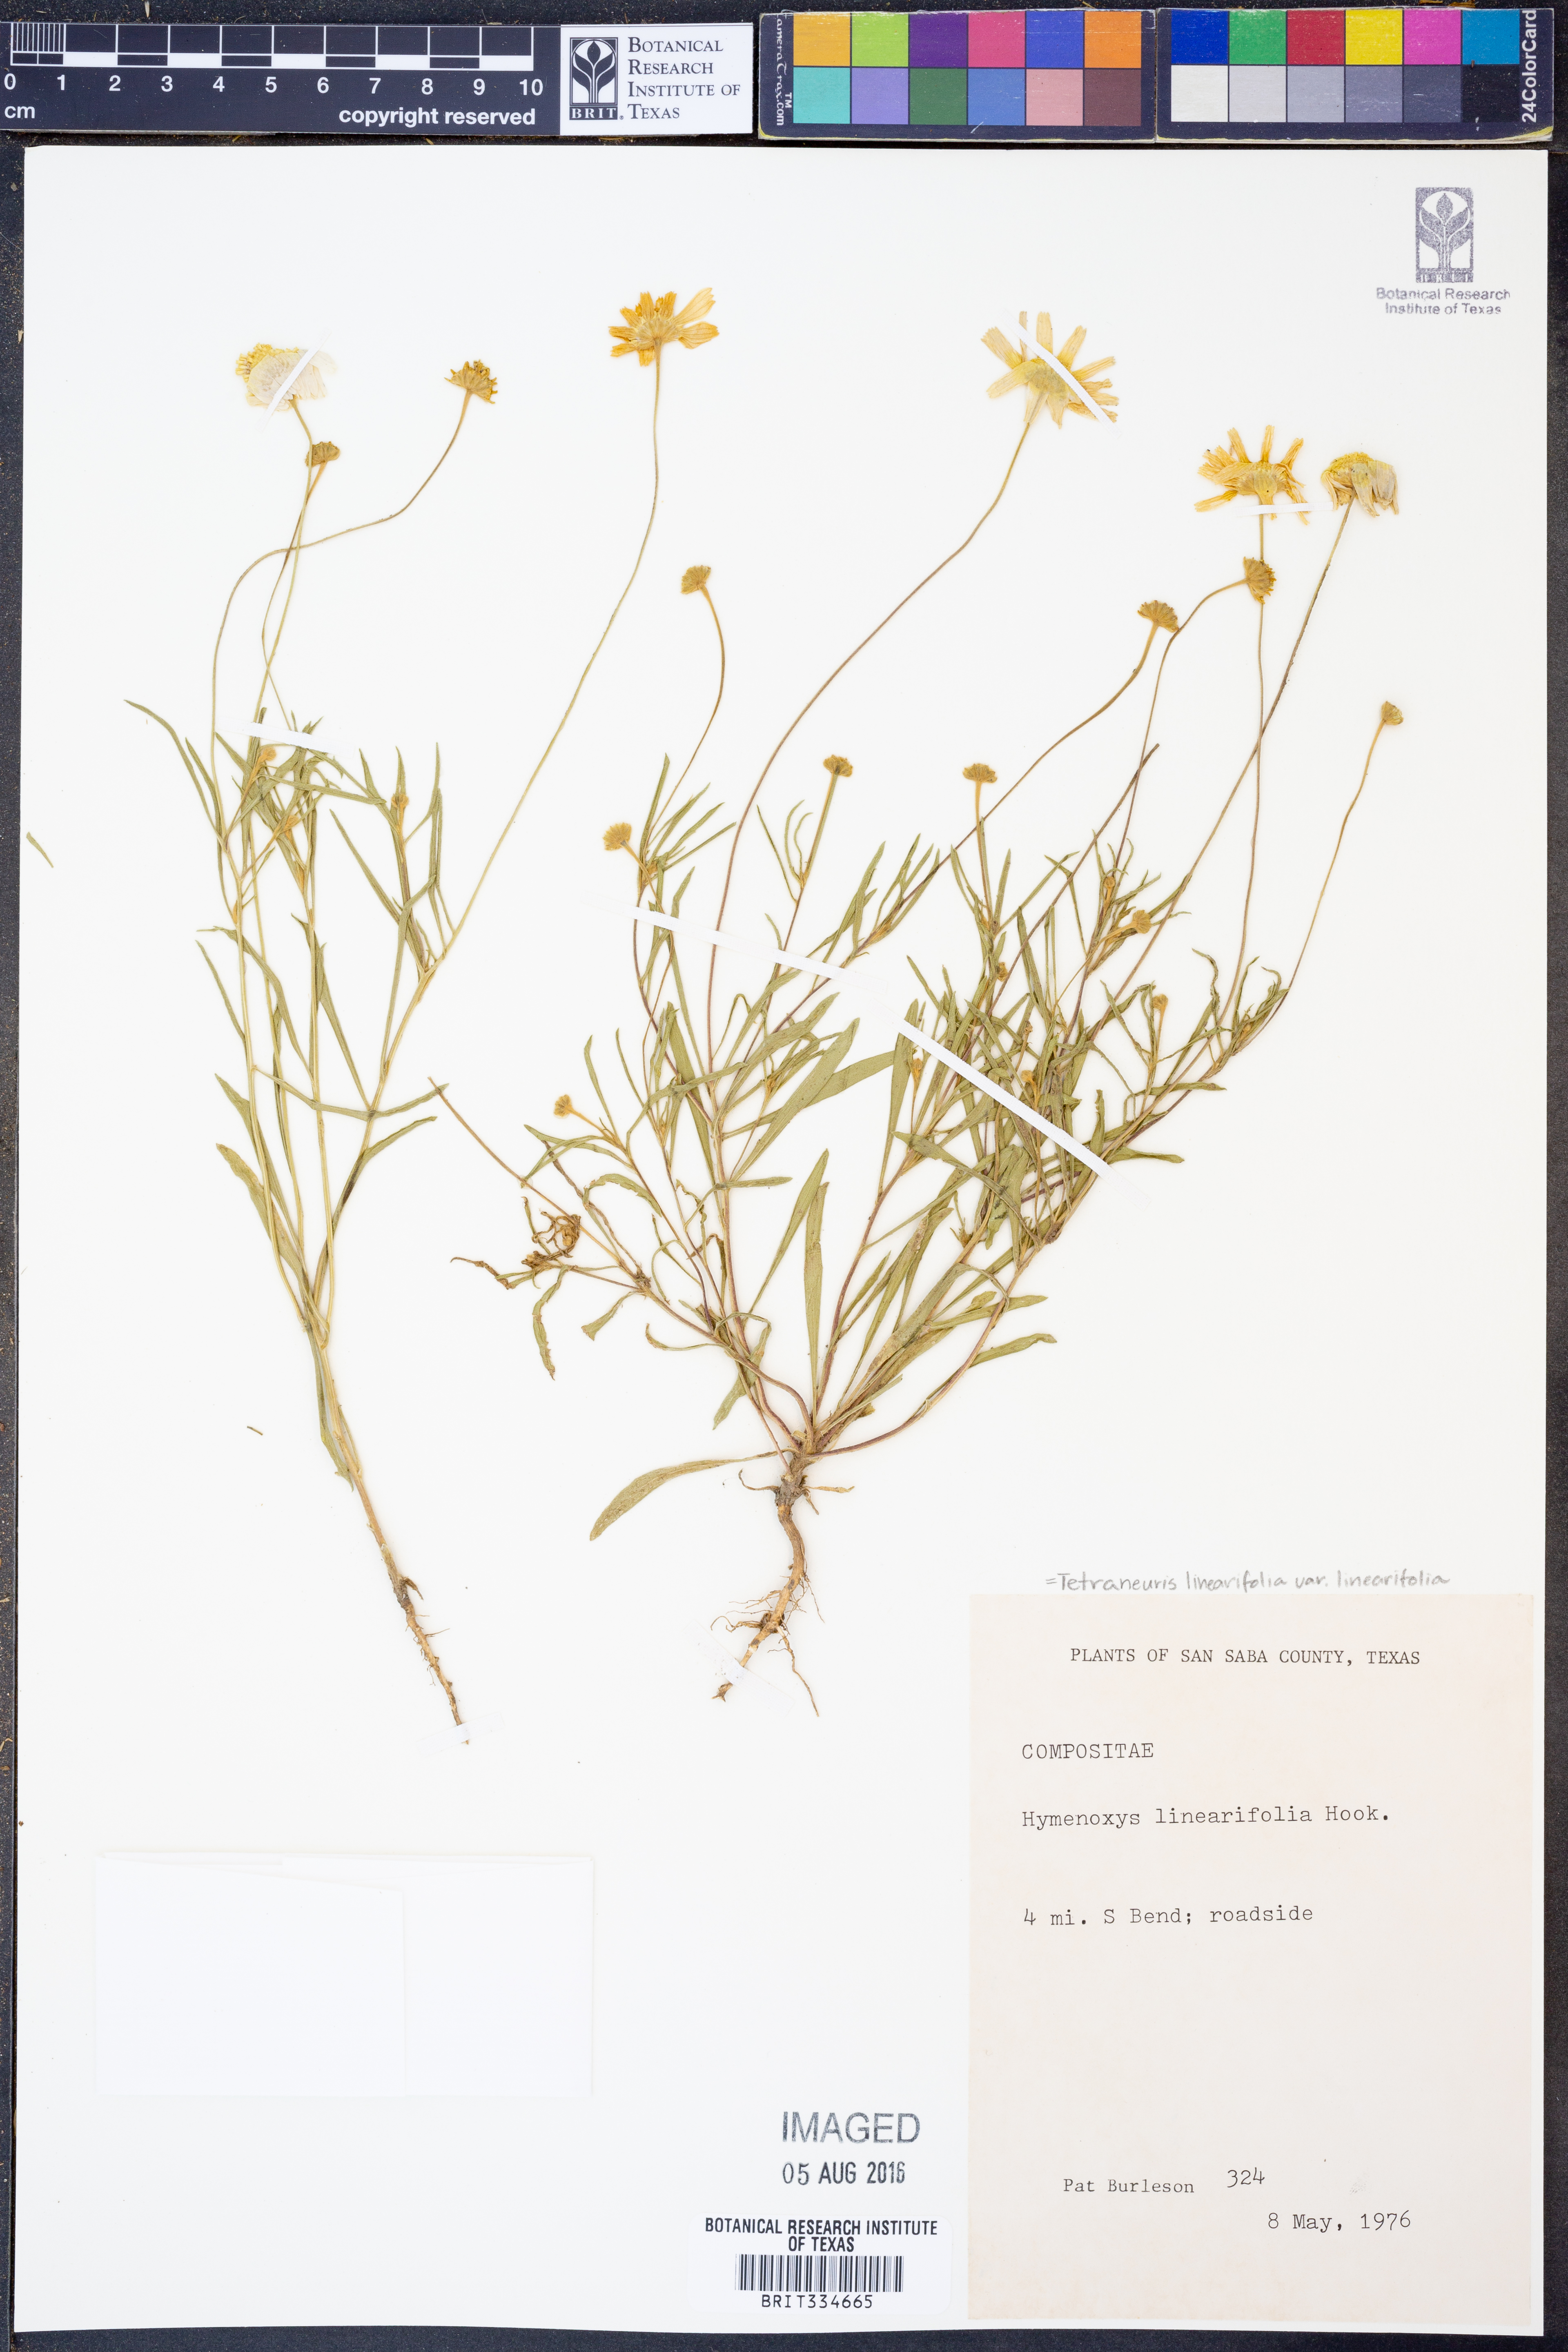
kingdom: Plantae
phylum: Tracheophyta
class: Magnoliopsida
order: Asterales
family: Asteraceae
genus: Tetraneuris
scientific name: Tetraneuris linearifolia
